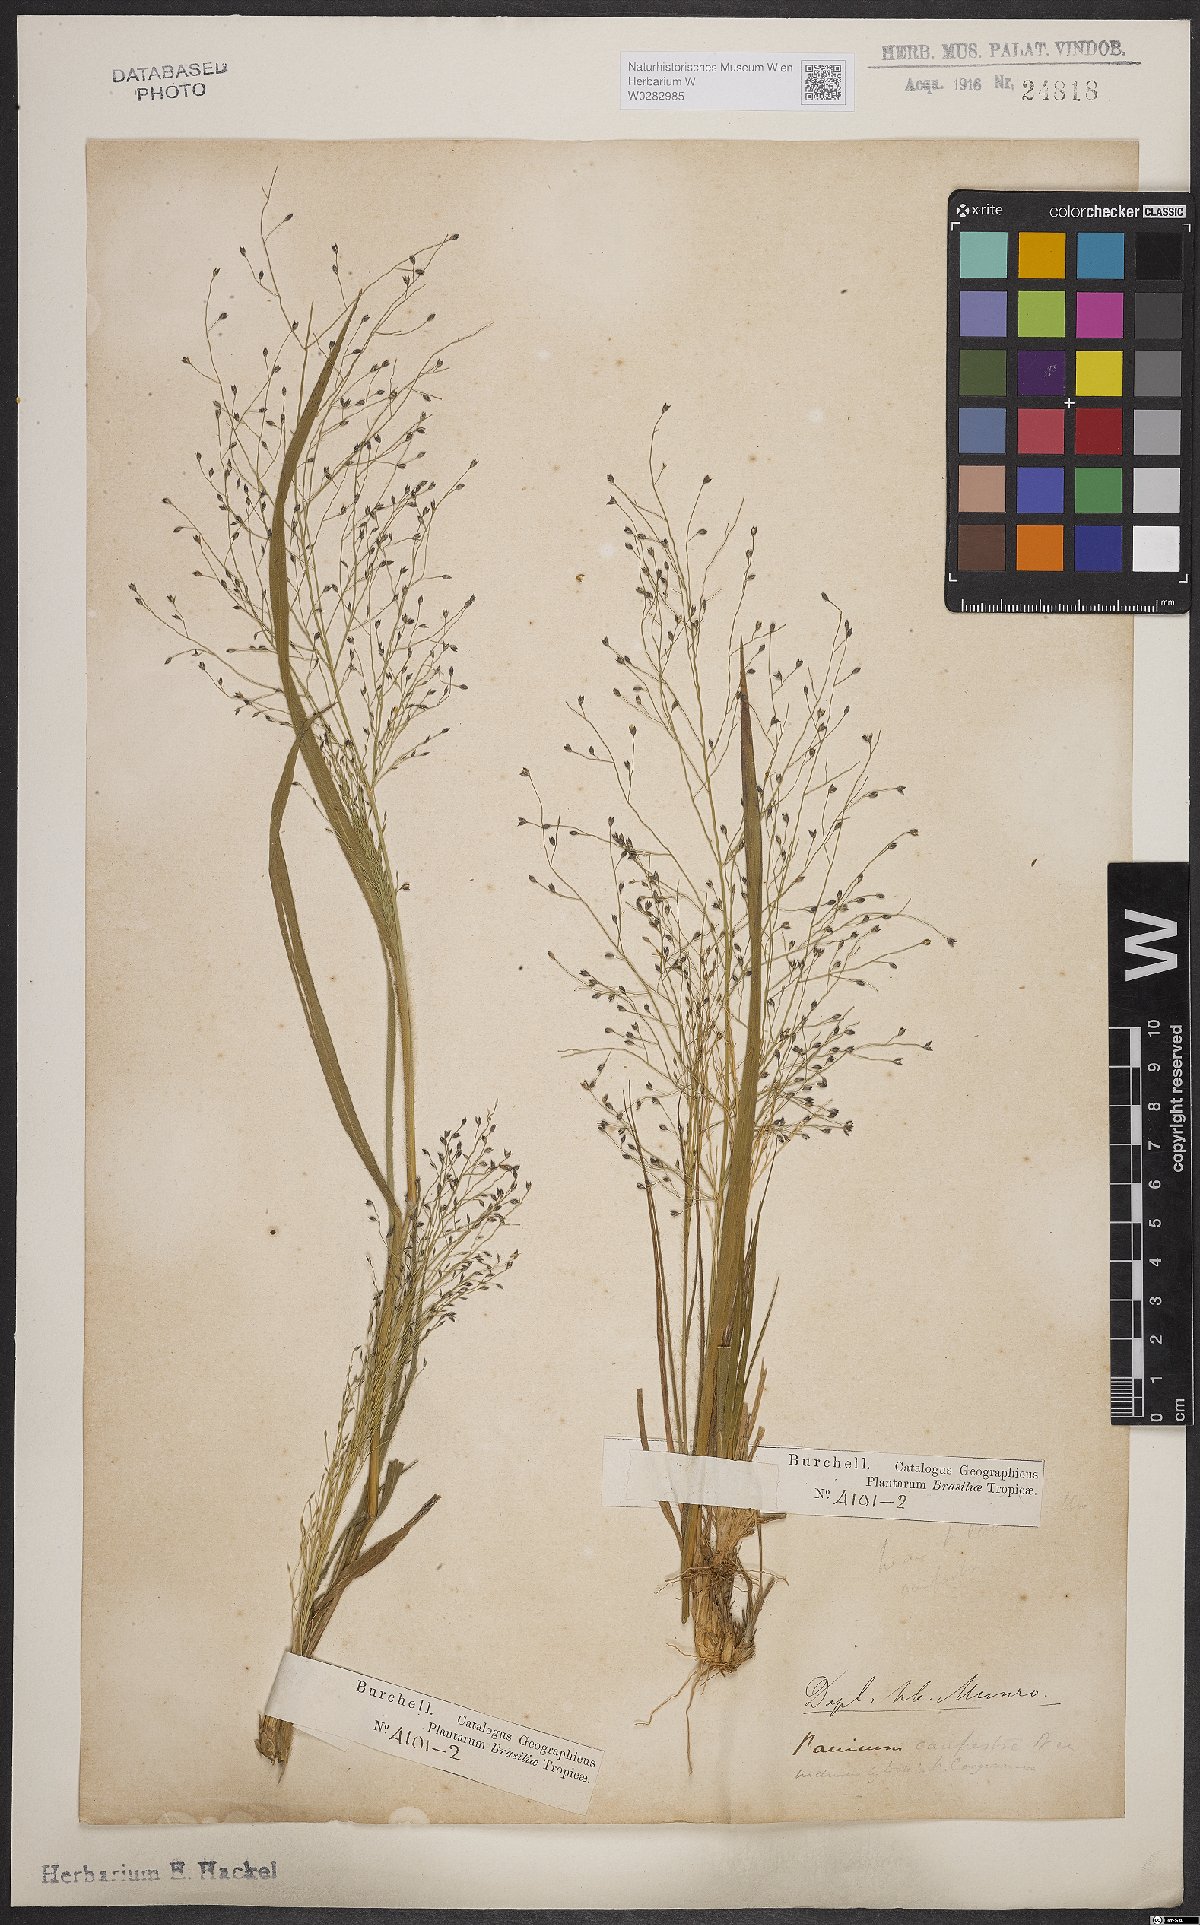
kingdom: Plantae
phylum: Tracheophyta
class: Liliopsida
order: Poales
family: Poaceae
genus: Panicum
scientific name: Panicum peladoense
